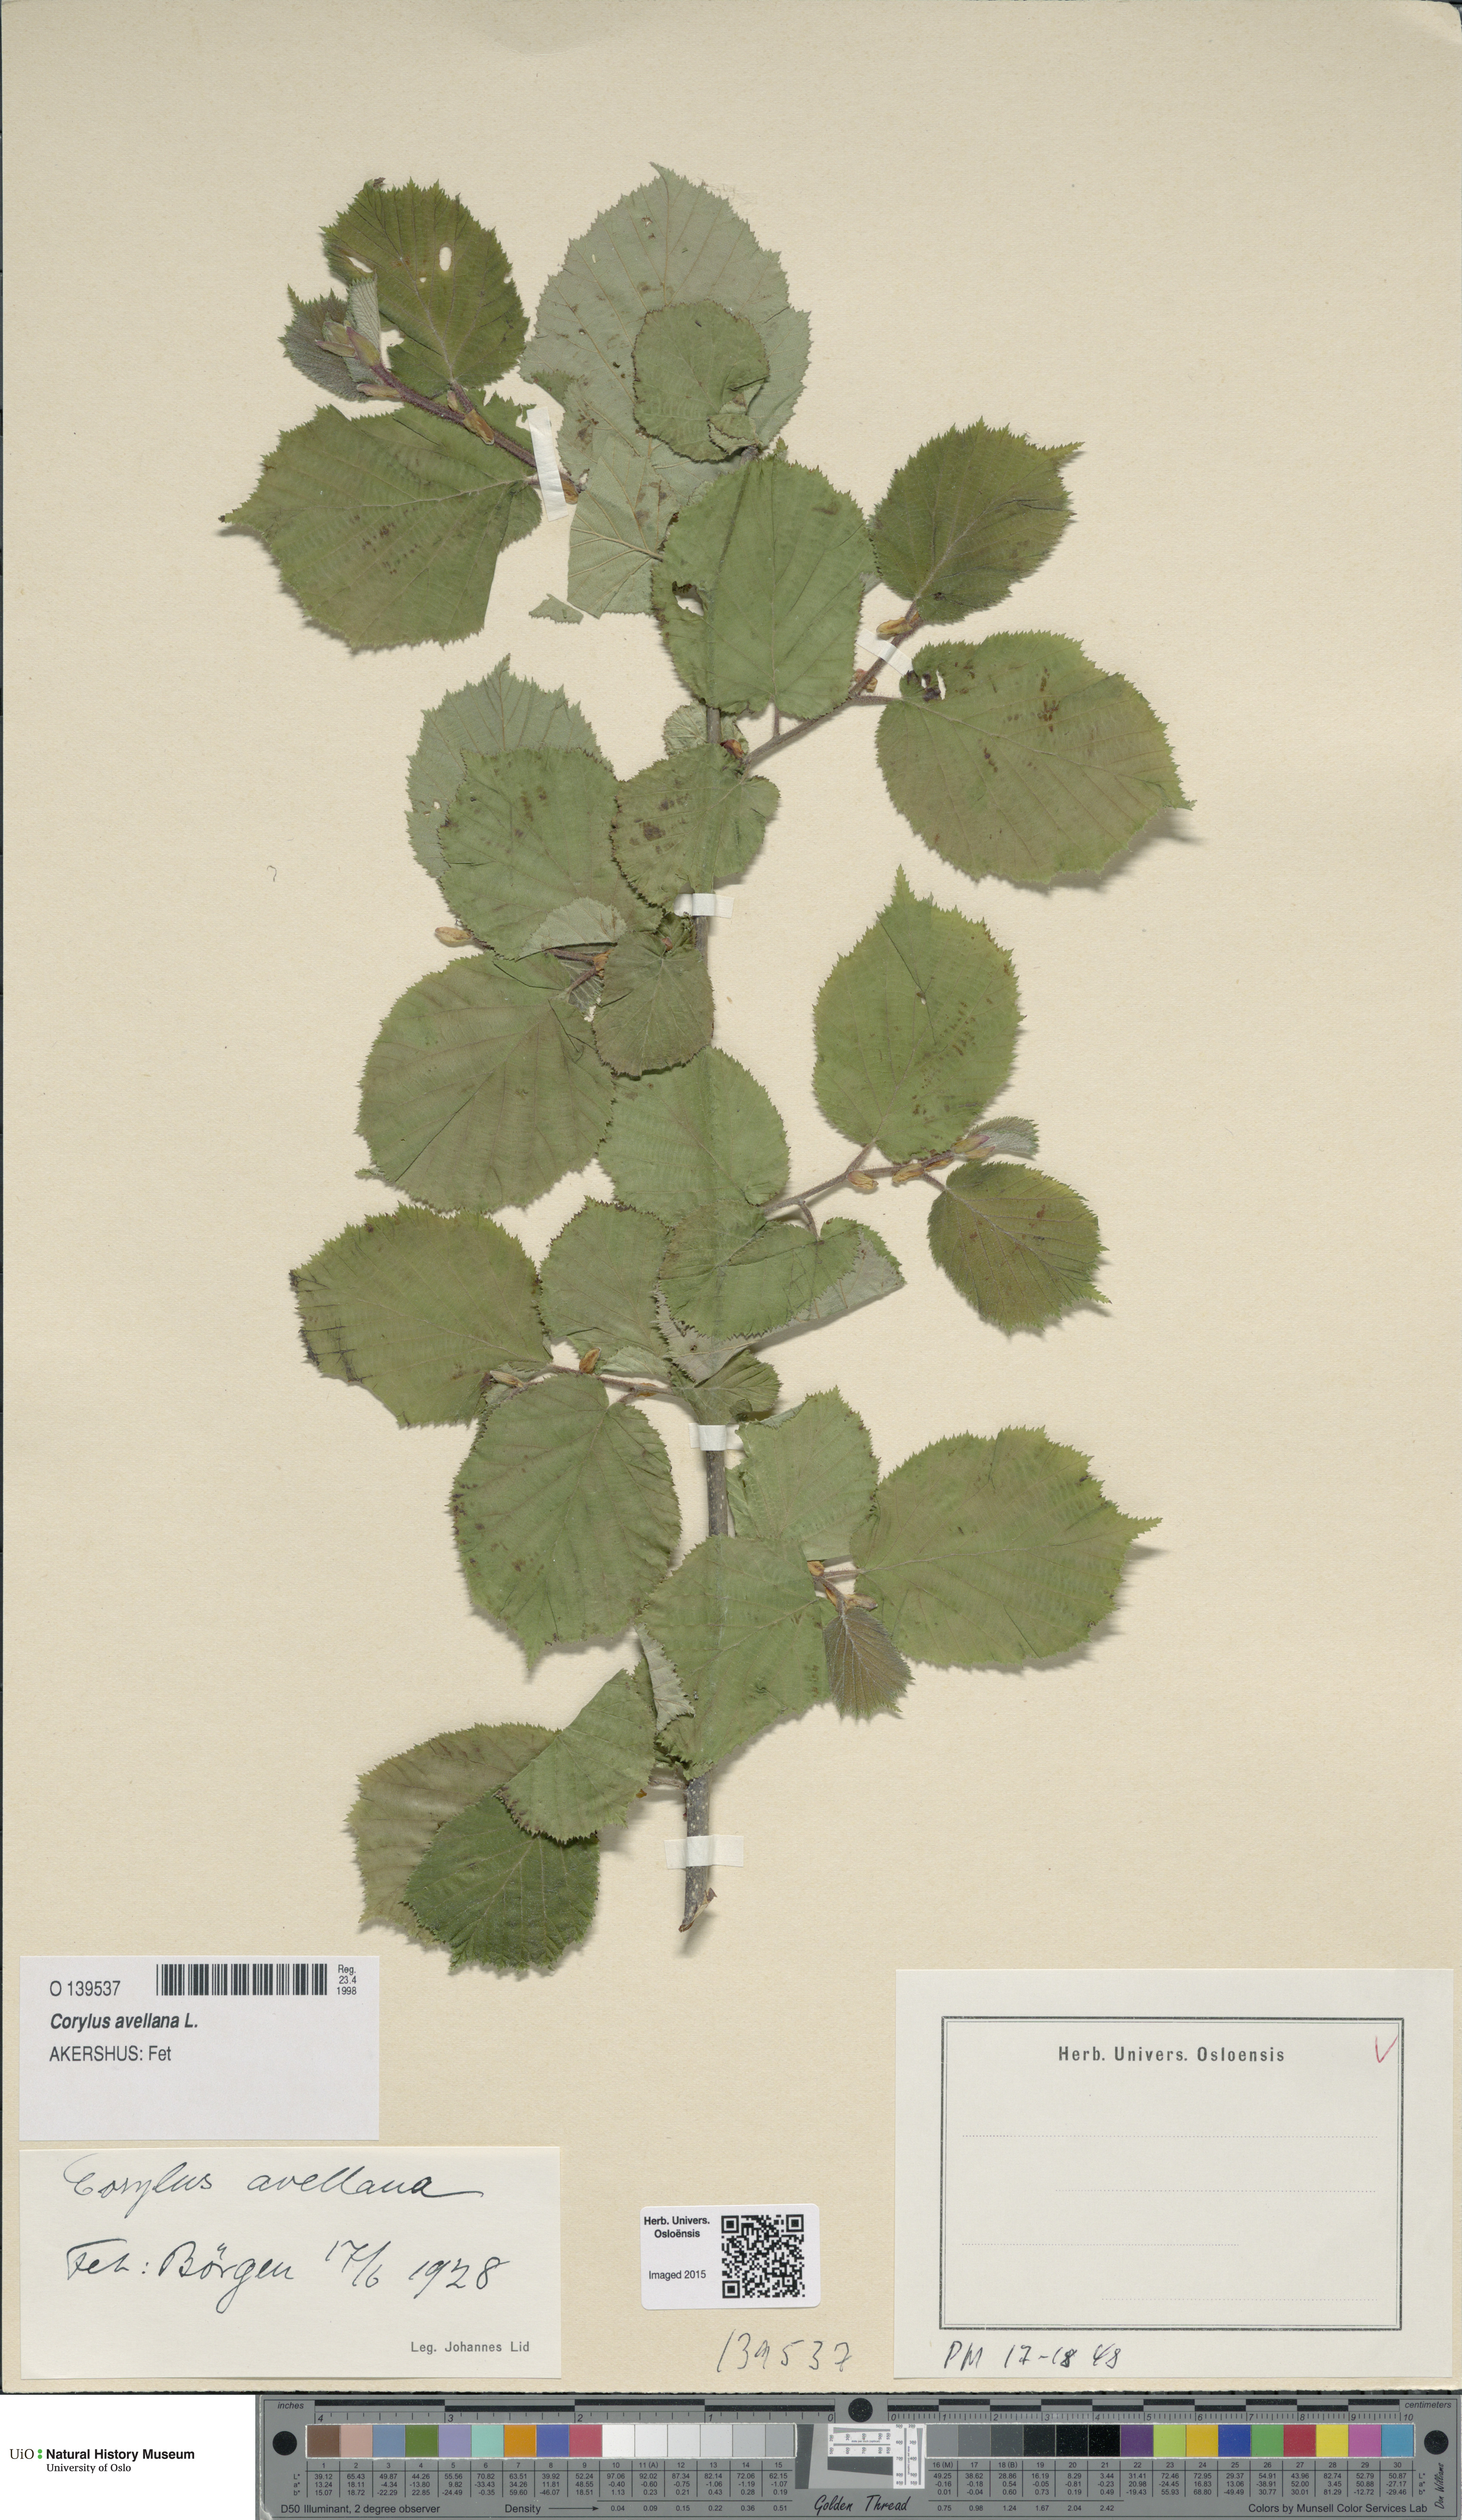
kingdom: Plantae
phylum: Tracheophyta
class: Magnoliopsida
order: Fagales
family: Betulaceae
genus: Corylus
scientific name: Corylus avellana
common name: European hazel
